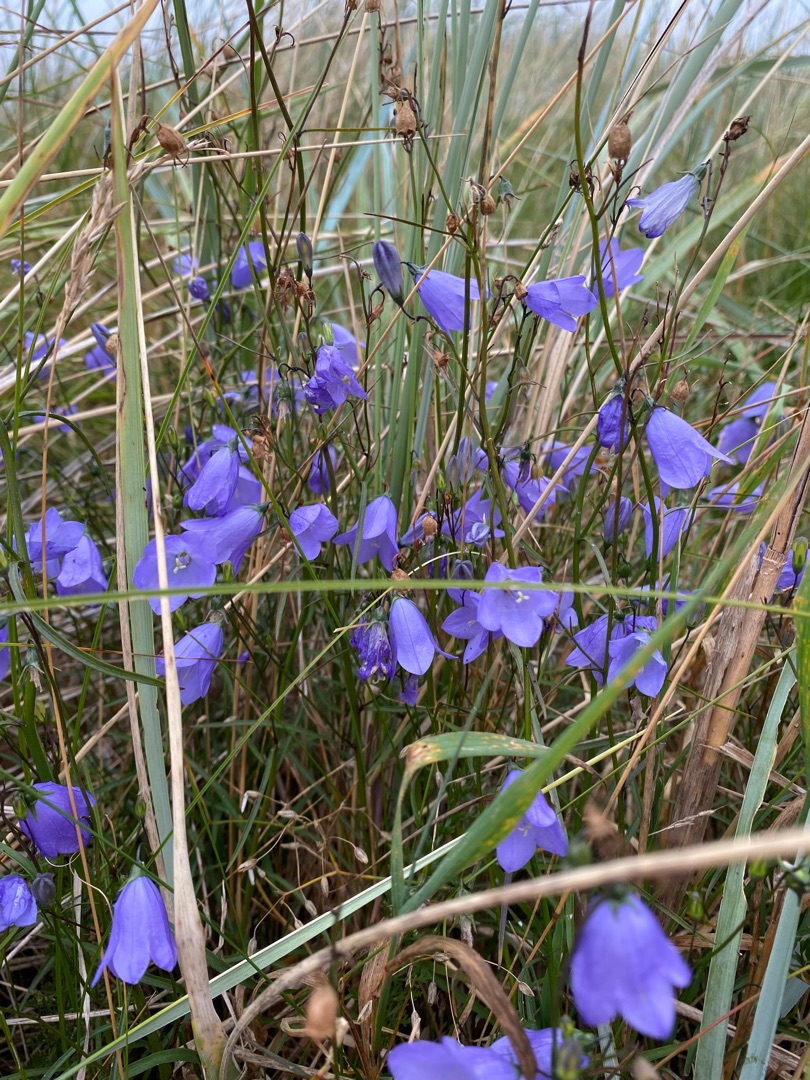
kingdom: Plantae
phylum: Tracheophyta
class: Magnoliopsida
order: Asterales
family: Campanulaceae
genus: Campanula
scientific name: Campanula rotundifolia
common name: Liden klokke
